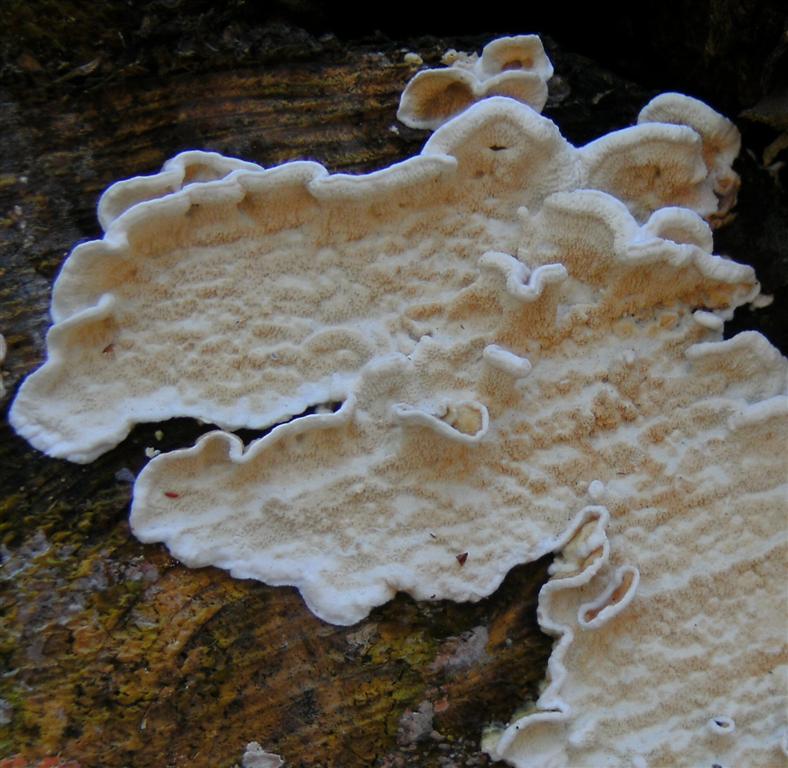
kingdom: Fungi
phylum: Basidiomycota
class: Agaricomycetes
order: Polyporales
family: Irpicaceae
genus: Byssomerulius
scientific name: Byssomerulius corium
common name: læder-åresvamp
